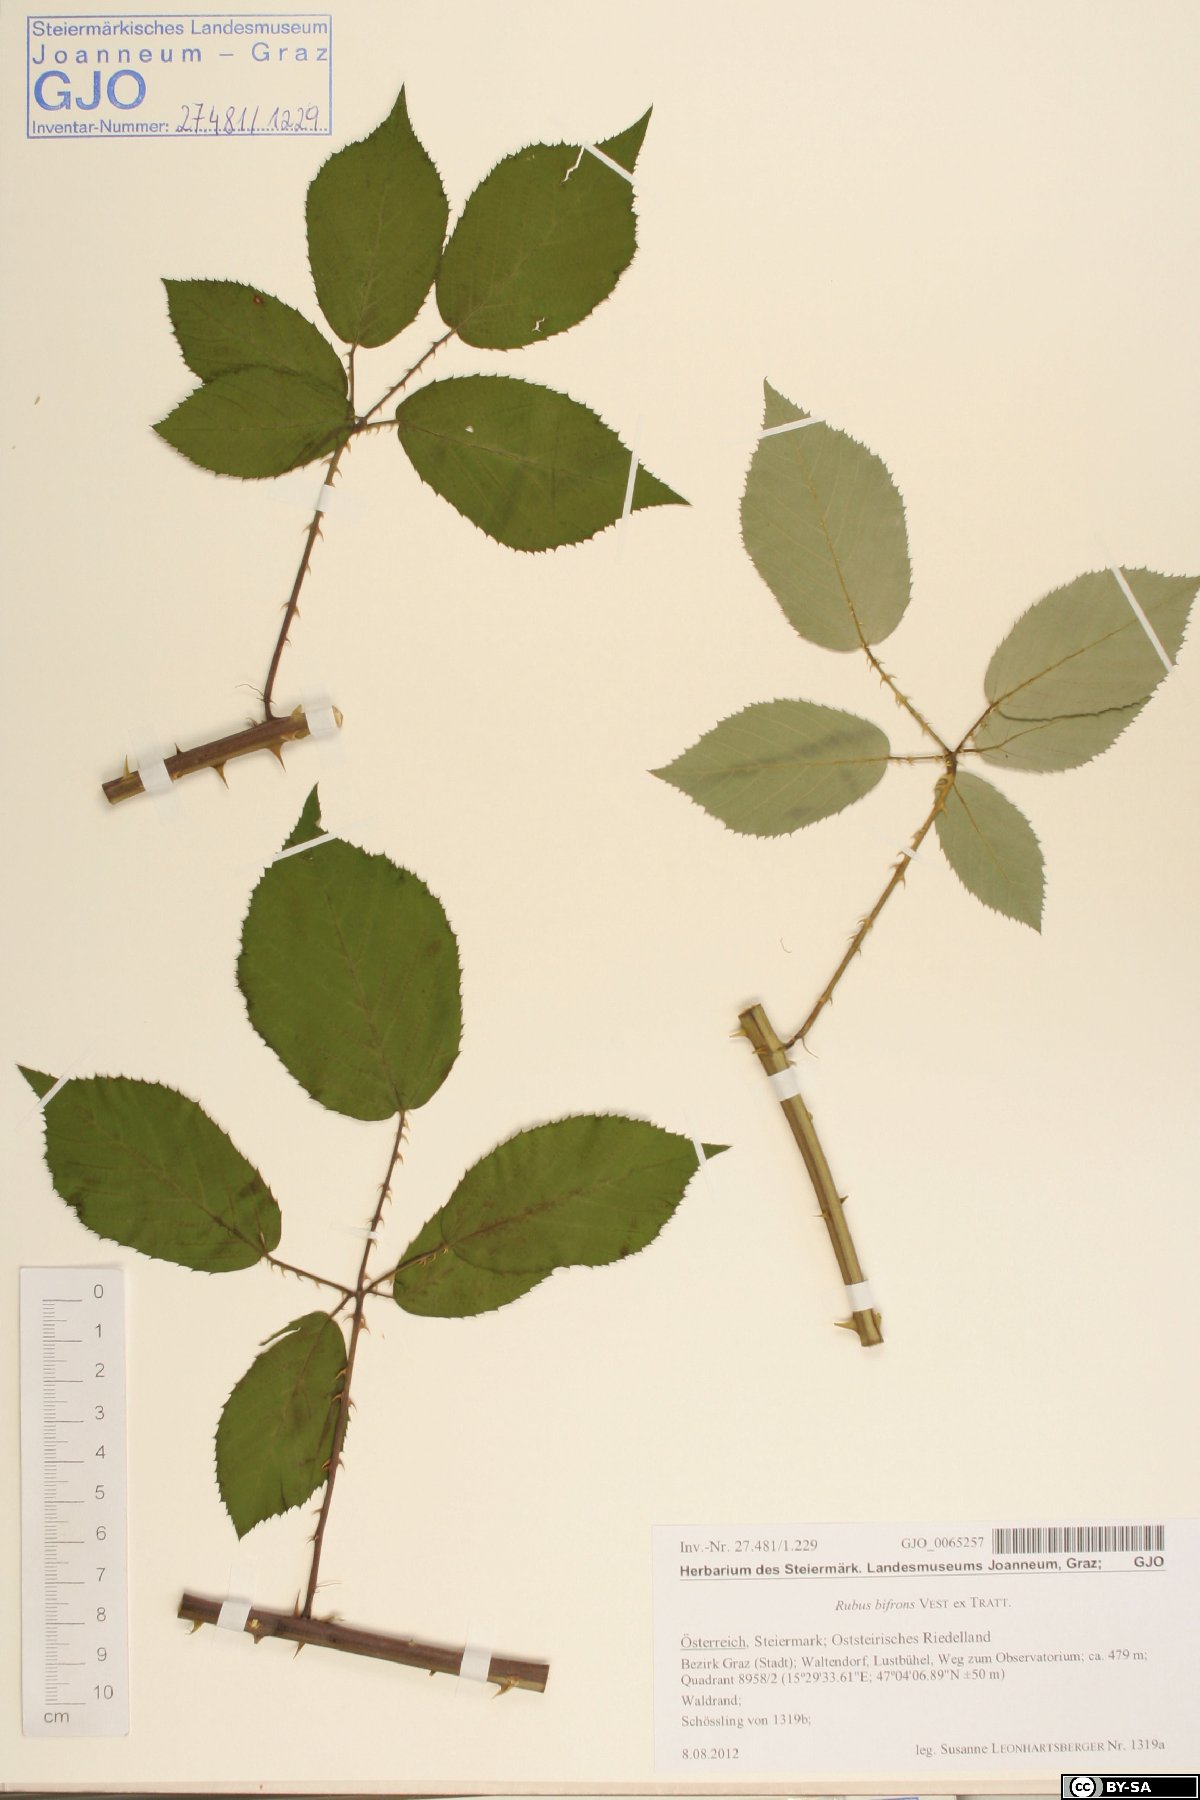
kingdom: Plantae
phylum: Tracheophyta
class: Magnoliopsida
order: Rosales
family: Rosaceae
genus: Rubus
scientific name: Rubus bifrons
